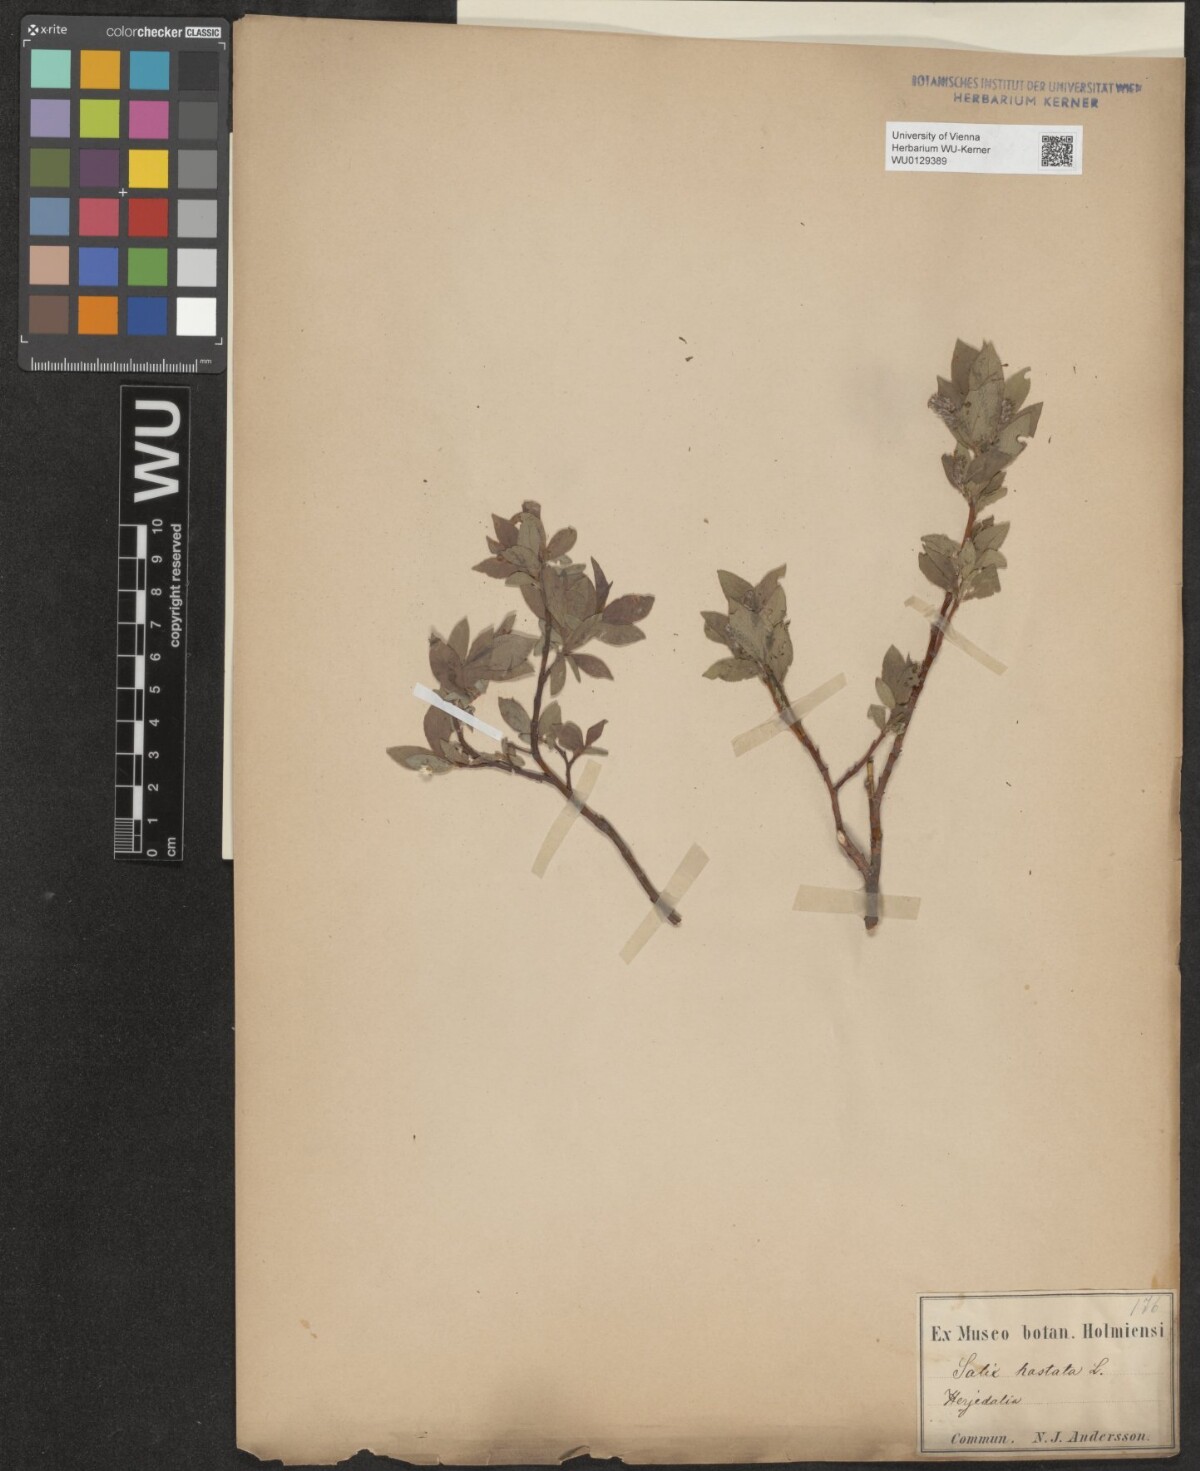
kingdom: Plantae
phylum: Tracheophyta
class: Magnoliopsida
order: Malpighiales
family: Salicaceae
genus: Salix
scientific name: Salix hastata
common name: Halberd willow
